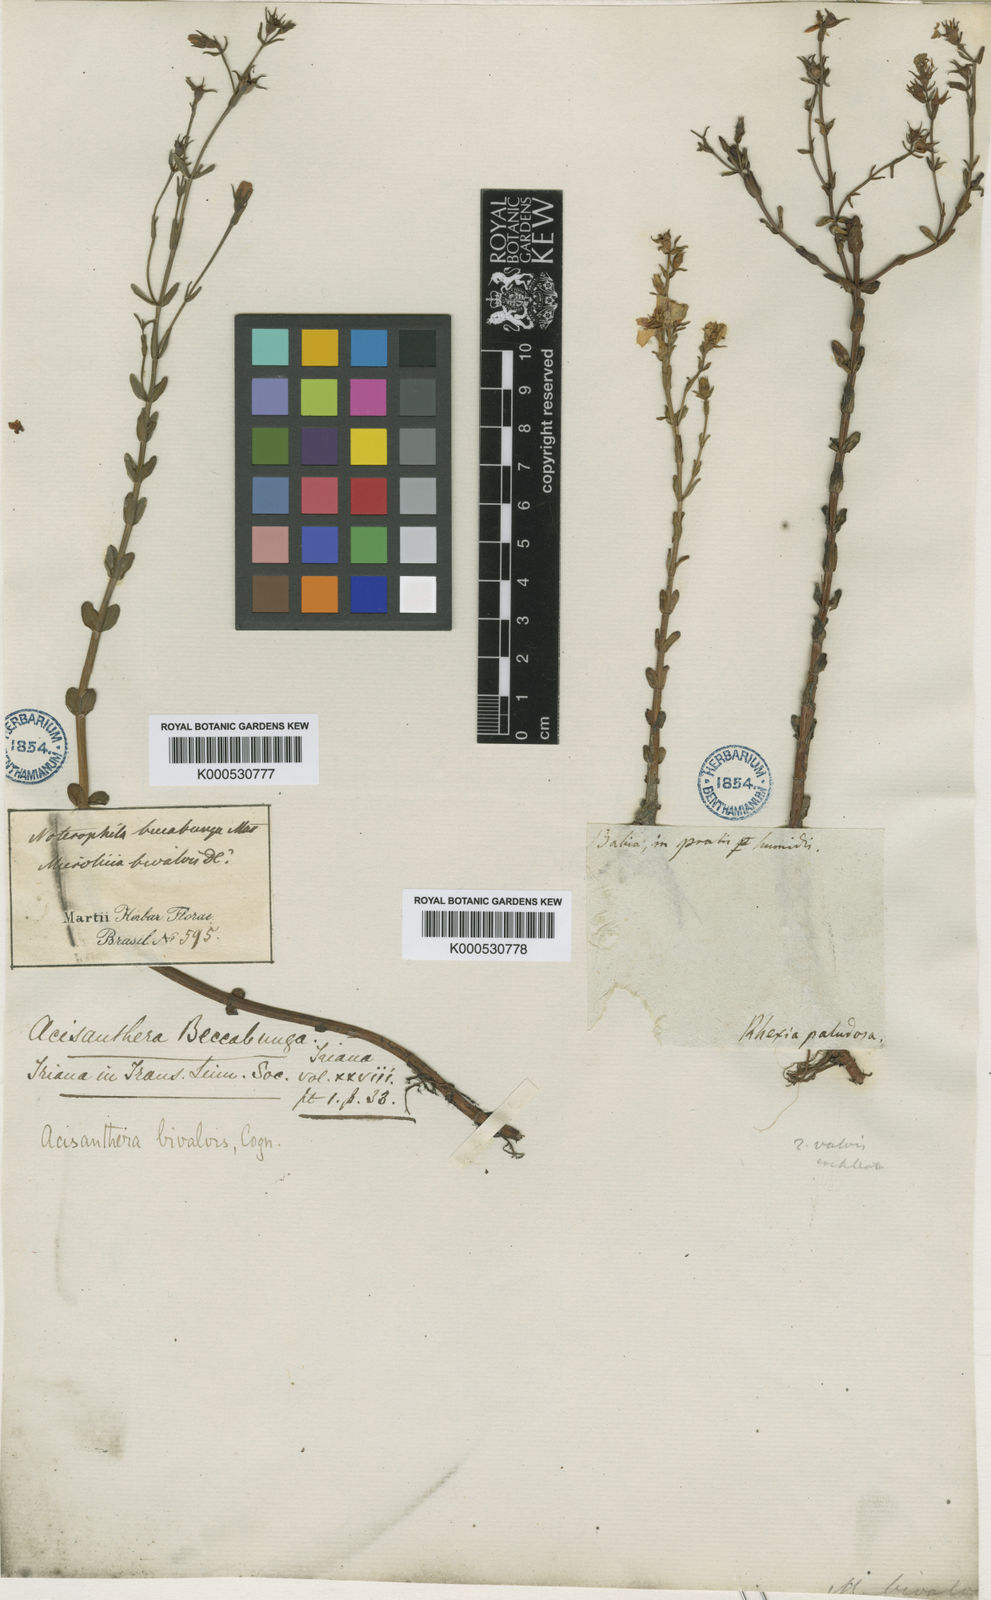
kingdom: Plantae
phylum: Tracheophyta
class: Magnoliopsida
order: Myrtales
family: Melastomataceae
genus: Noterophila
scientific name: Noterophila bivalvis
